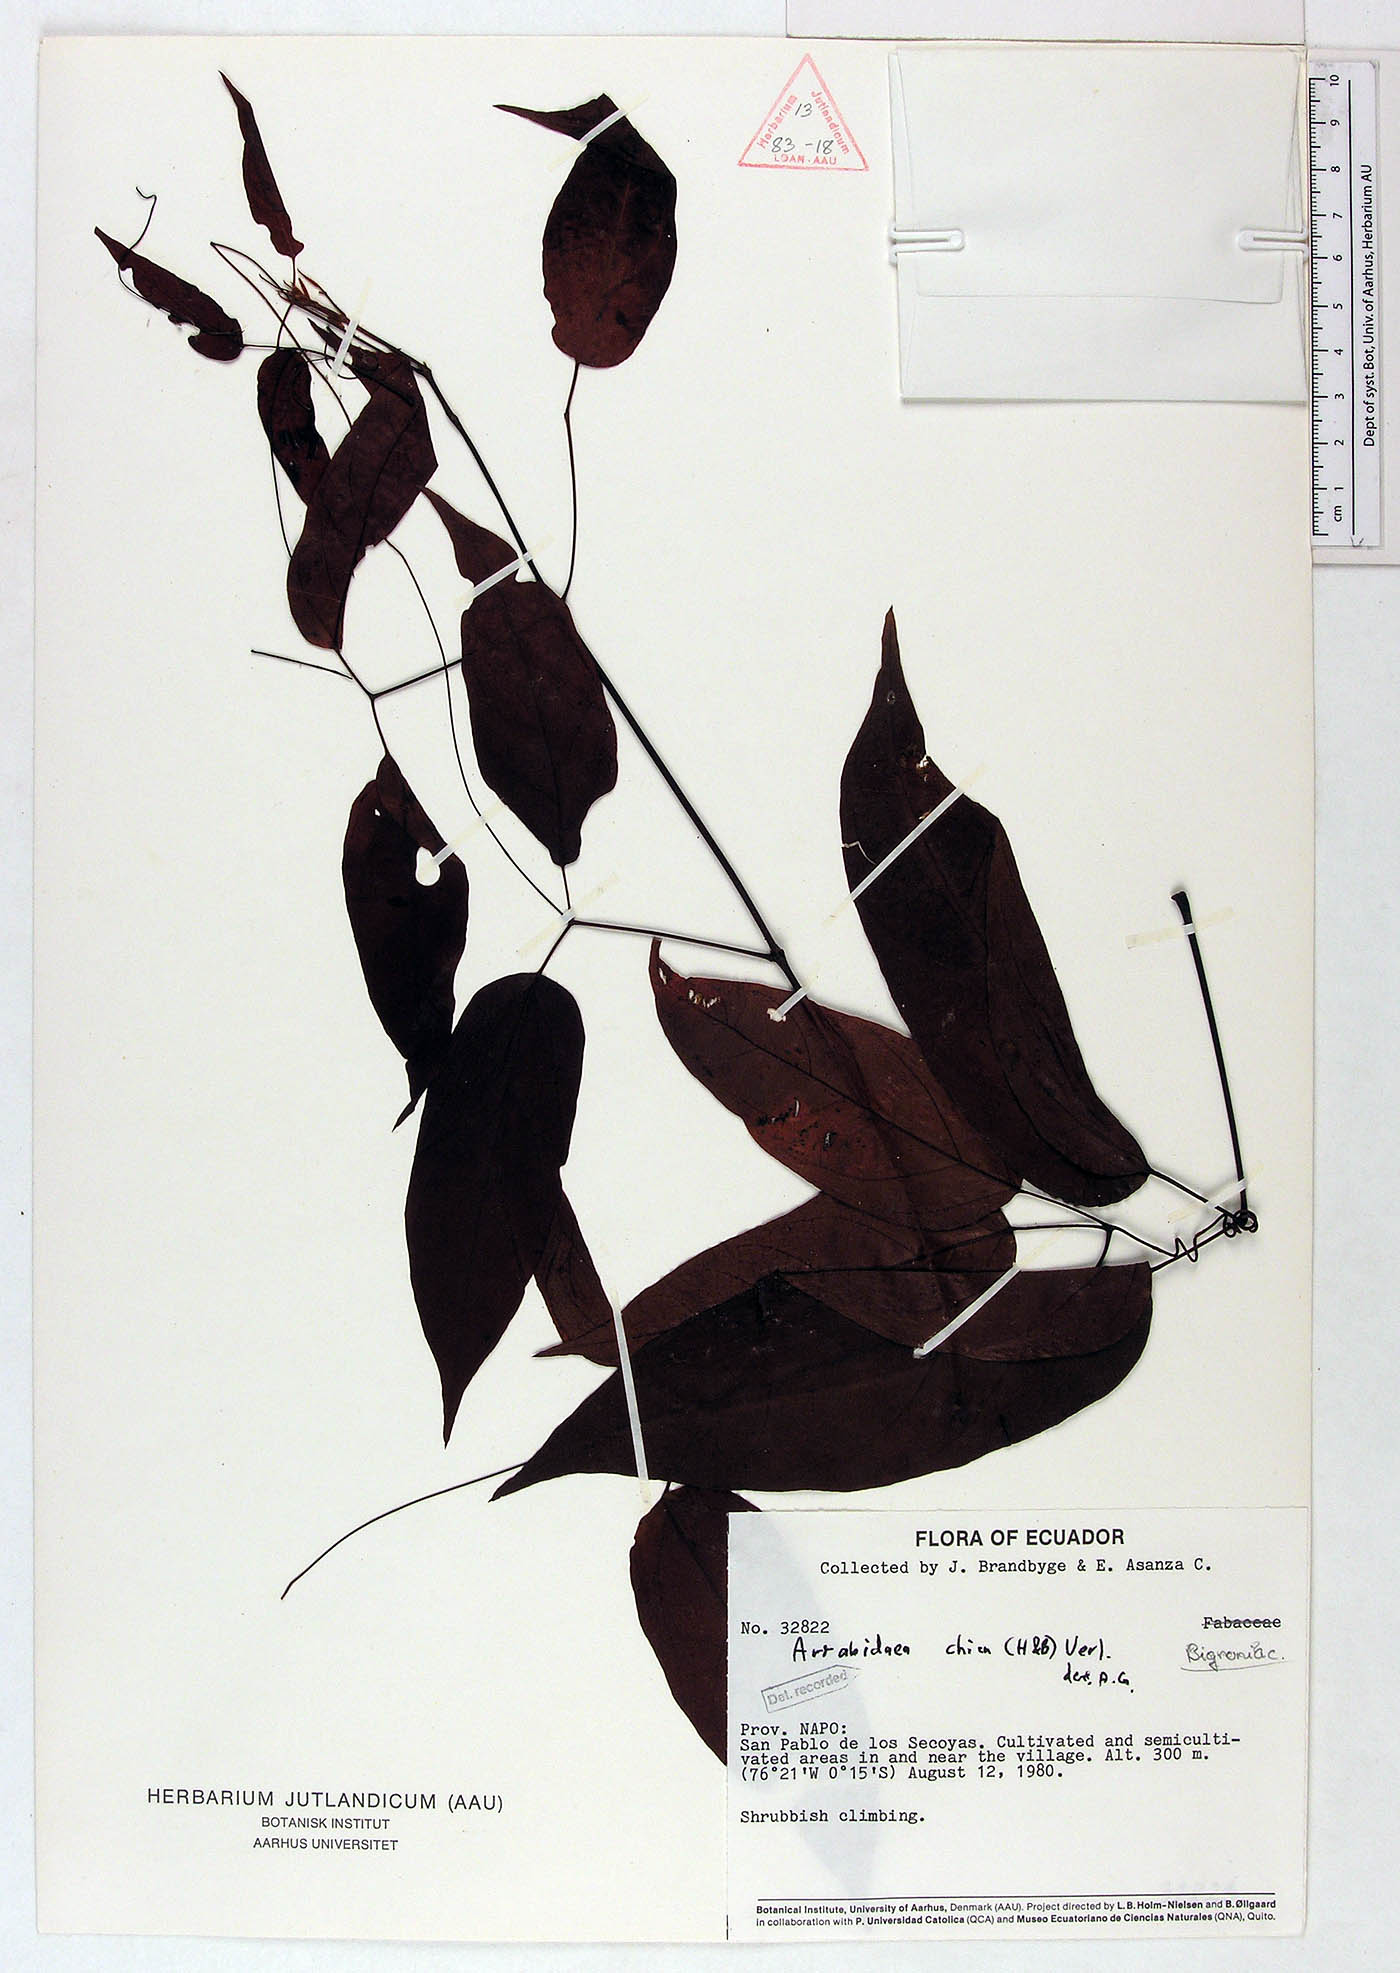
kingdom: Plantae
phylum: Tracheophyta
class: Magnoliopsida
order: Lamiales
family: Bignoniaceae
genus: Fridericia
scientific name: Fridericia chica
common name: Cricketvine
